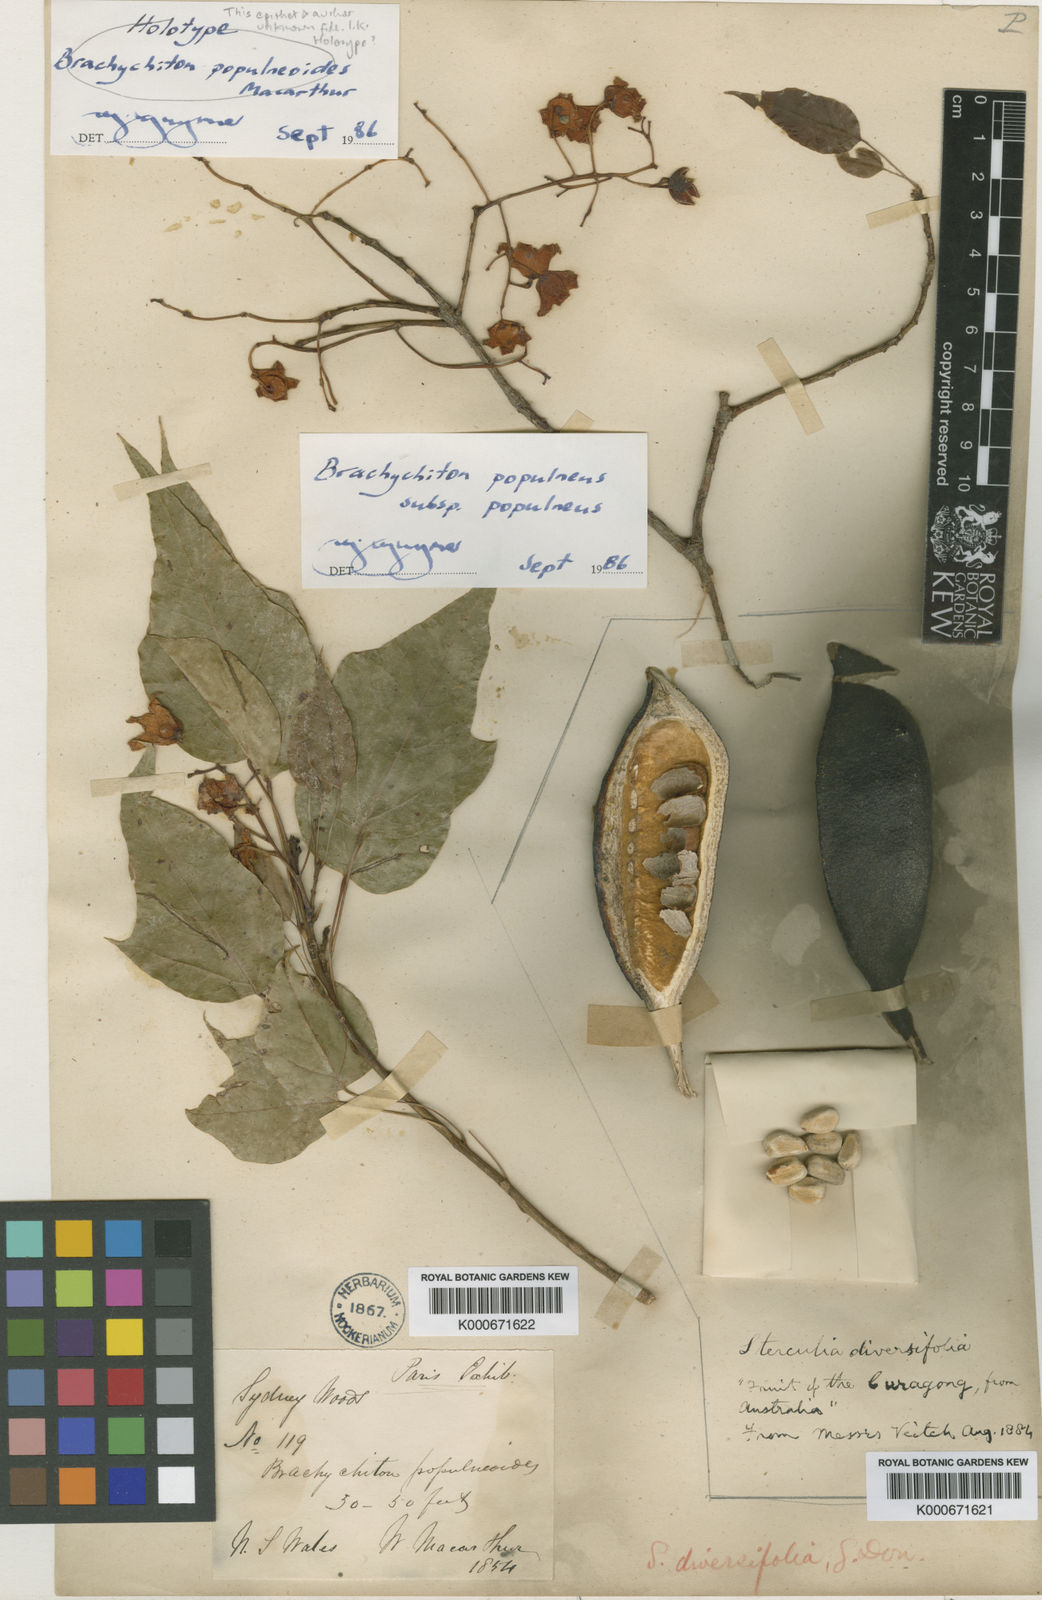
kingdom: Plantae
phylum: Tracheophyta
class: Magnoliopsida
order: Malvales
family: Malvaceae
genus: Brachychiton
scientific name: Brachychiton populneus
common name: Kurrajong
